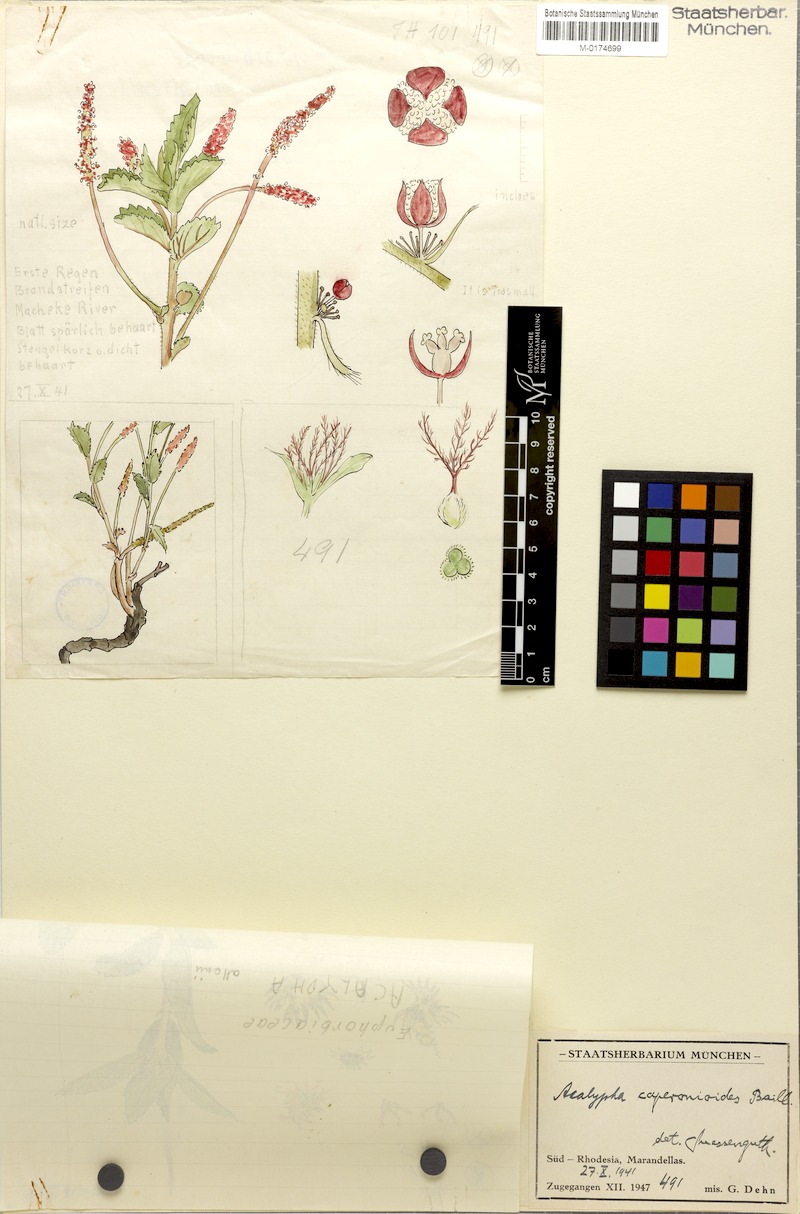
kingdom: Plantae
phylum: Tracheophyta
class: Magnoliopsida
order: Malpighiales
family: Euphorbiaceae
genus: Acalypha
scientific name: Acalypha caperonioides
